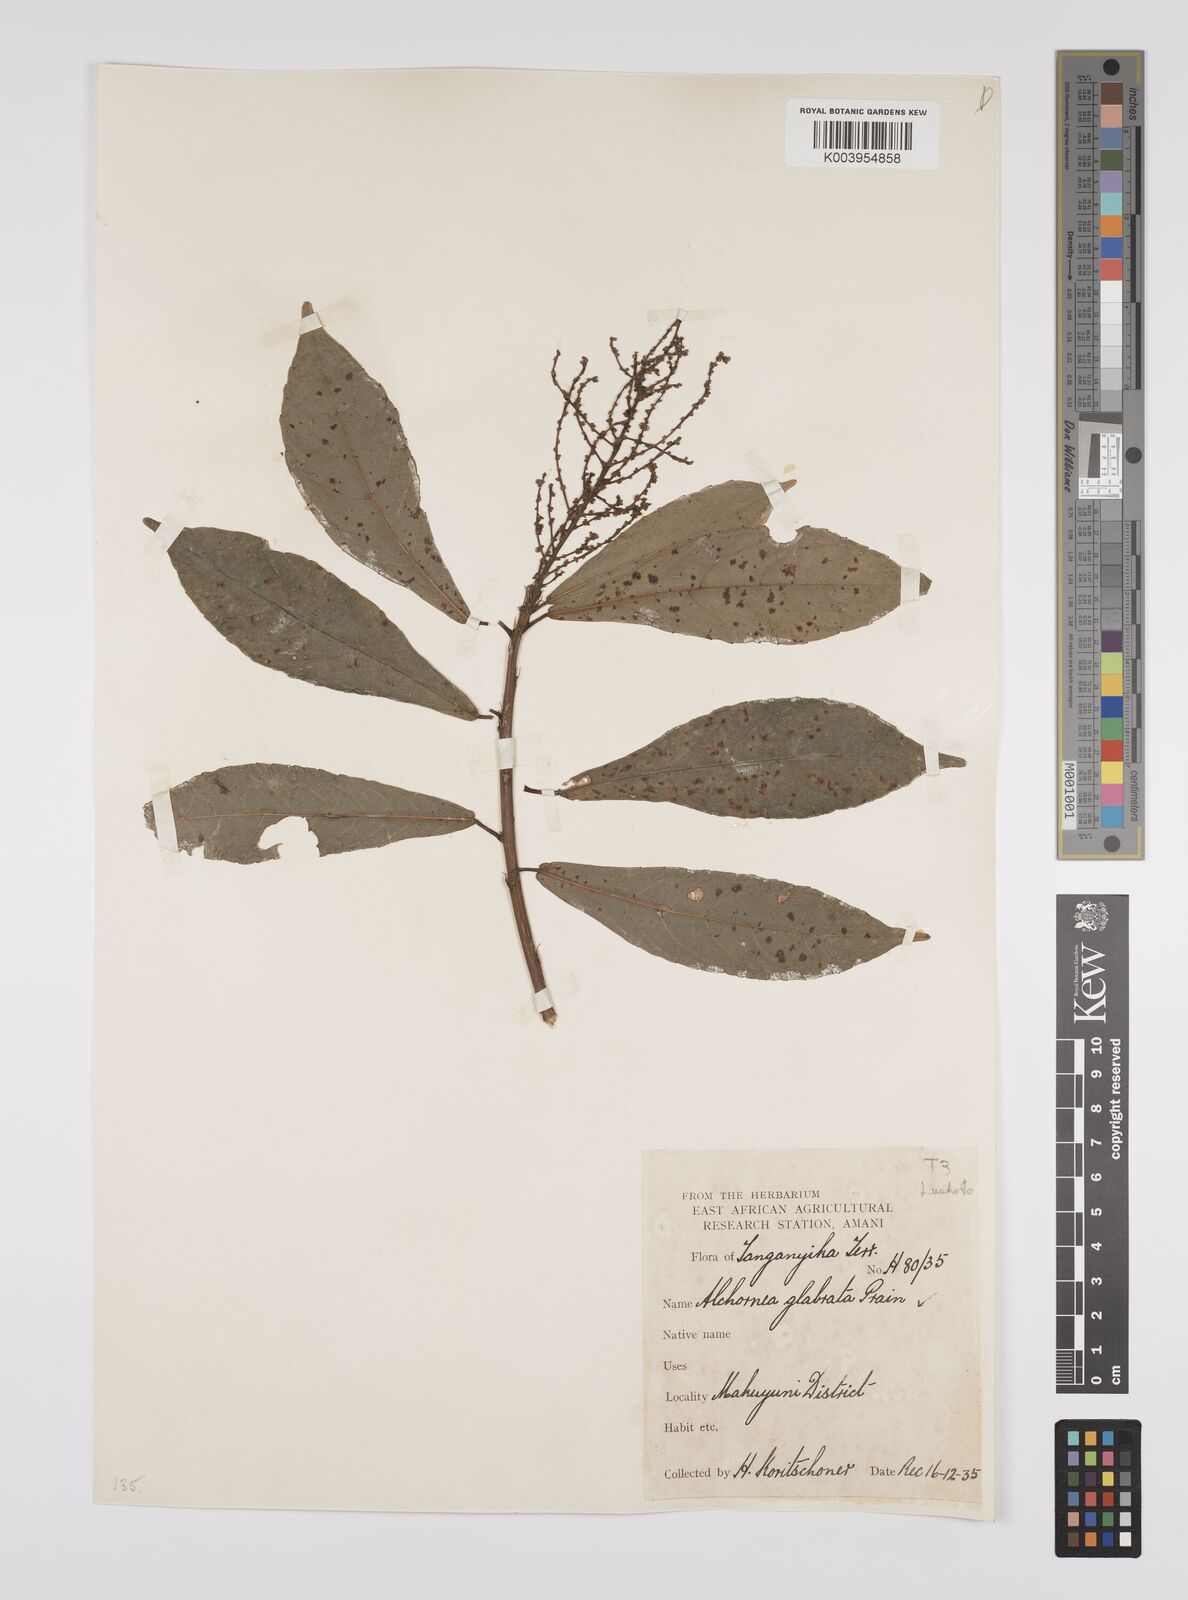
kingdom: Plantae
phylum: Tracheophyta
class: Magnoliopsida
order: Malpighiales
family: Euphorbiaceae
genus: Alchornea
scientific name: Alchornea hirtella
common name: Forest bead-string
